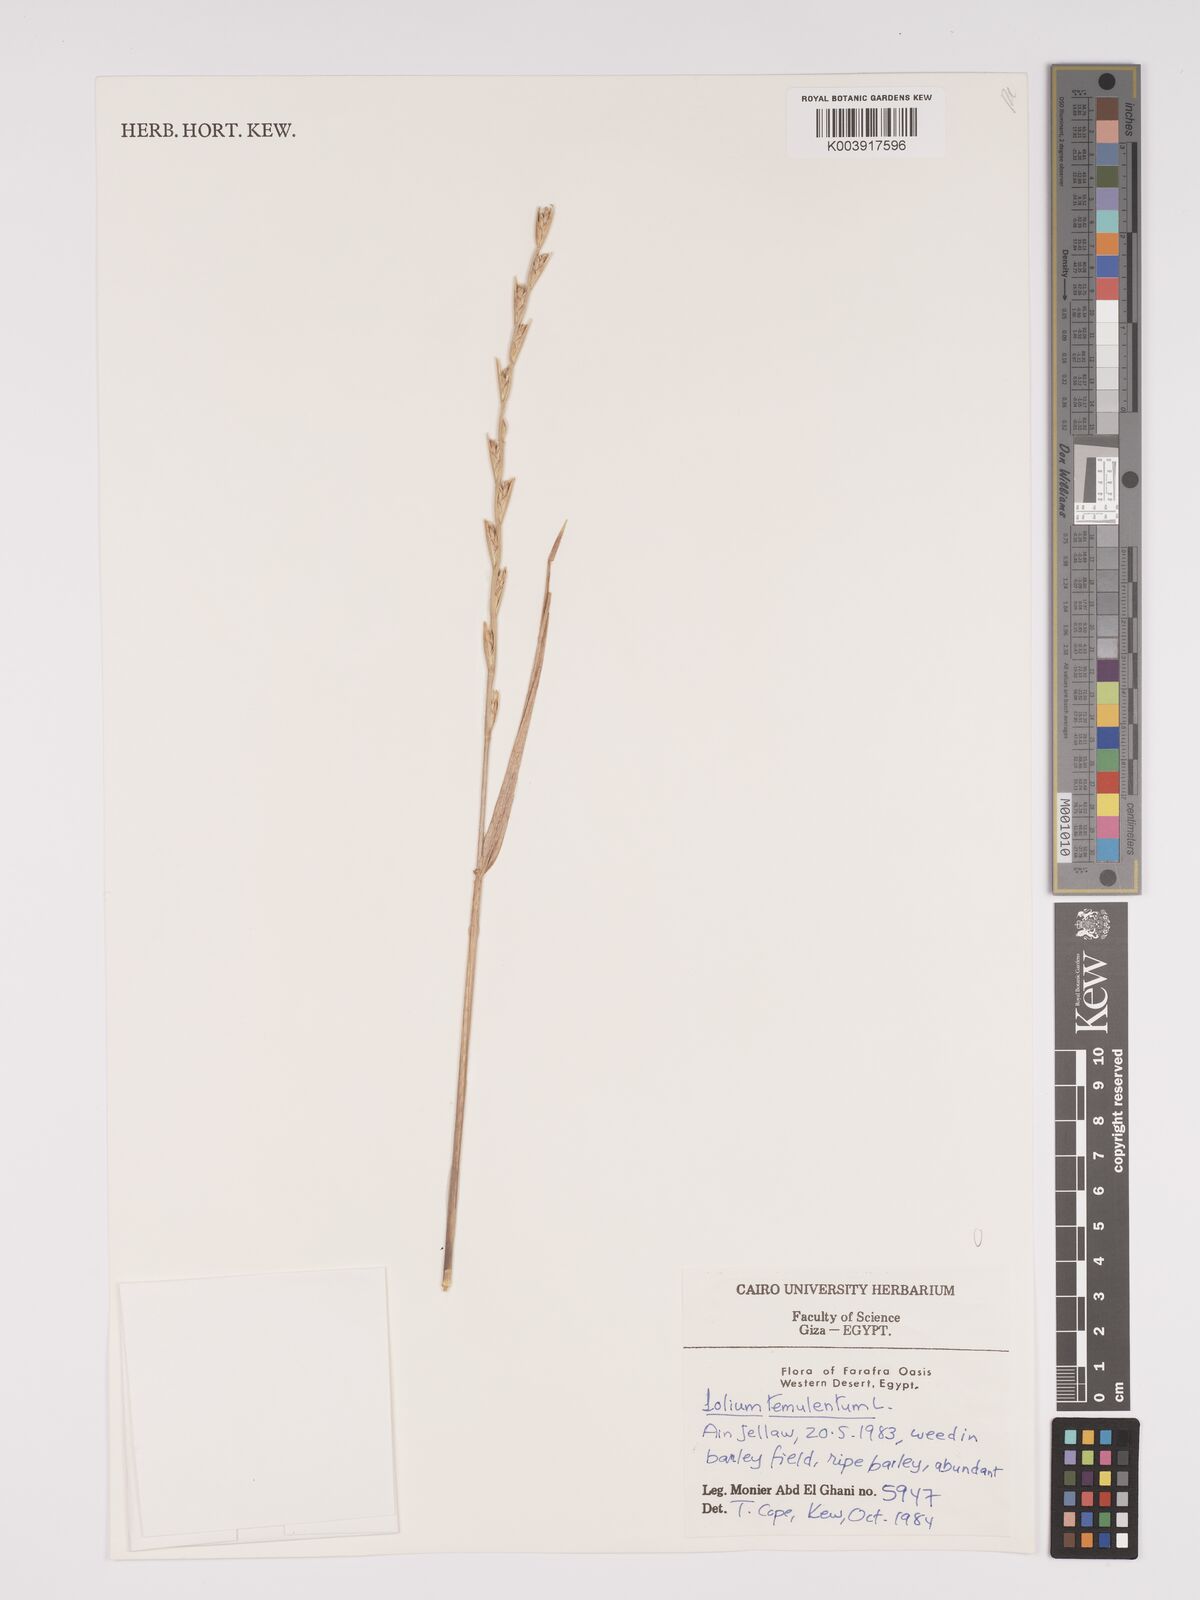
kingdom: Plantae
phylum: Tracheophyta
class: Liliopsida
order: Poales
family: Poaceae
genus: Lolium
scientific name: Lolium temulentum
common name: Darnel
